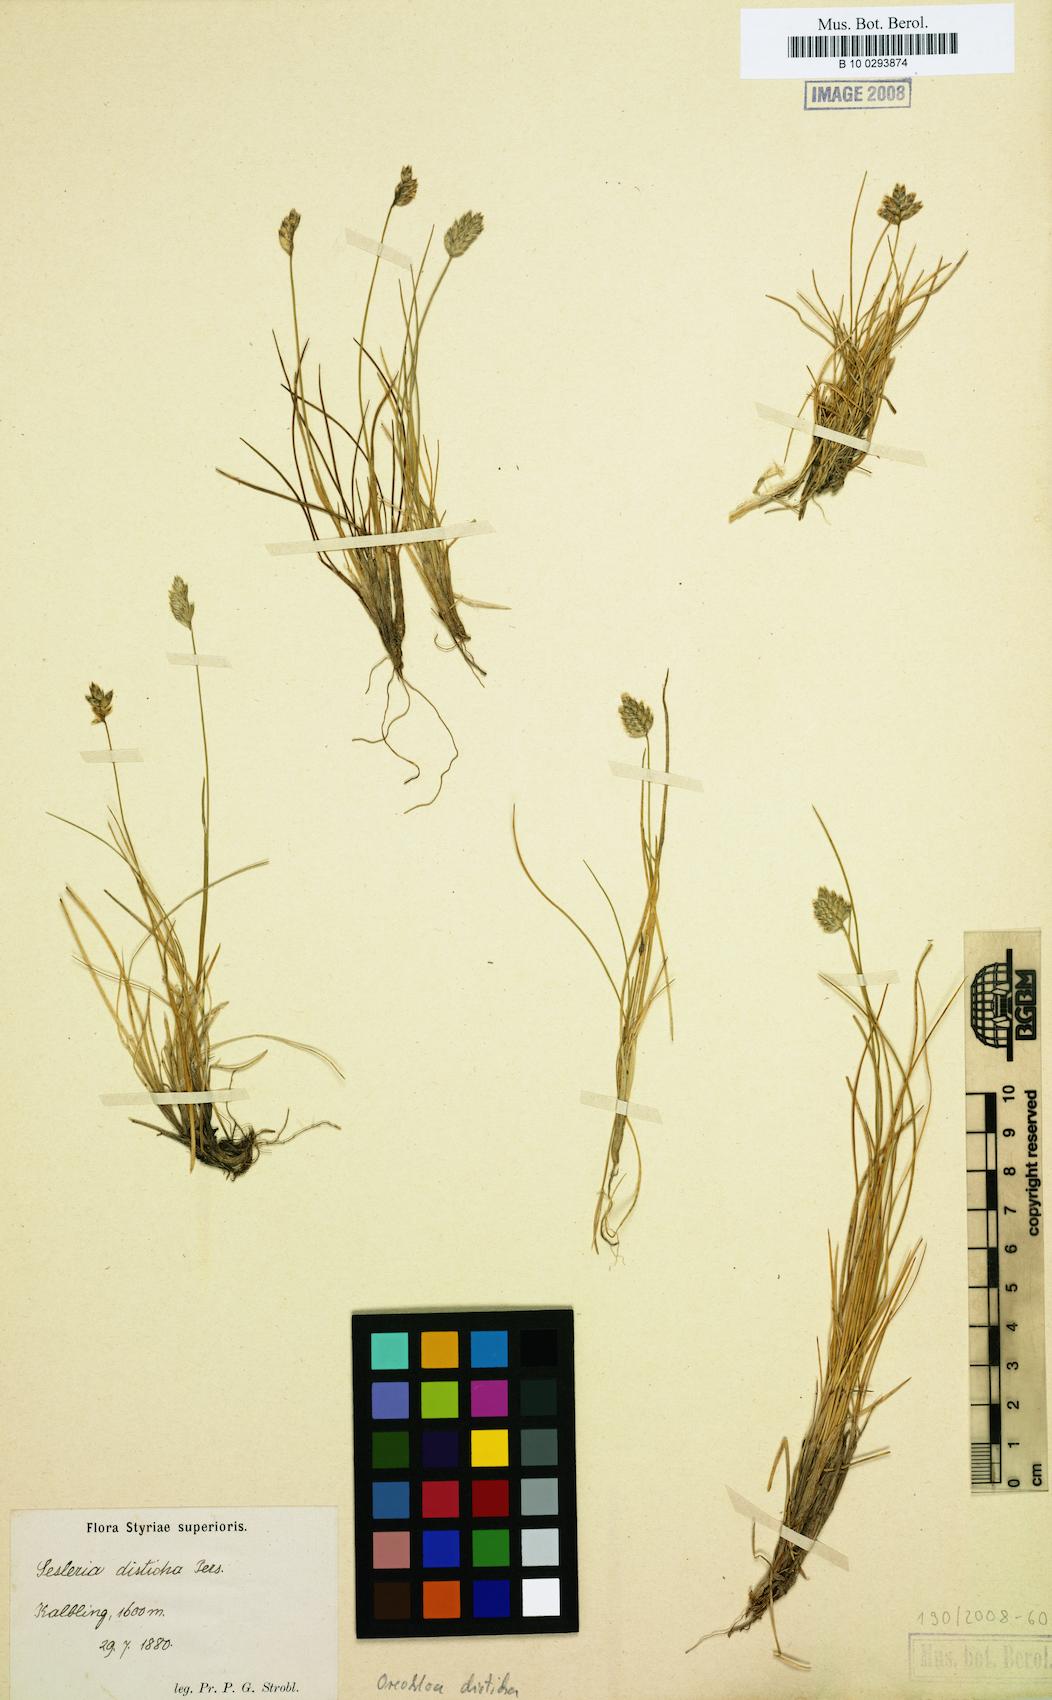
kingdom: Plantae
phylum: Tracheophyta
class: Liliopsida
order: Poales
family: Poaceae
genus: Oreochloa
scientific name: Oreochloa disticha
